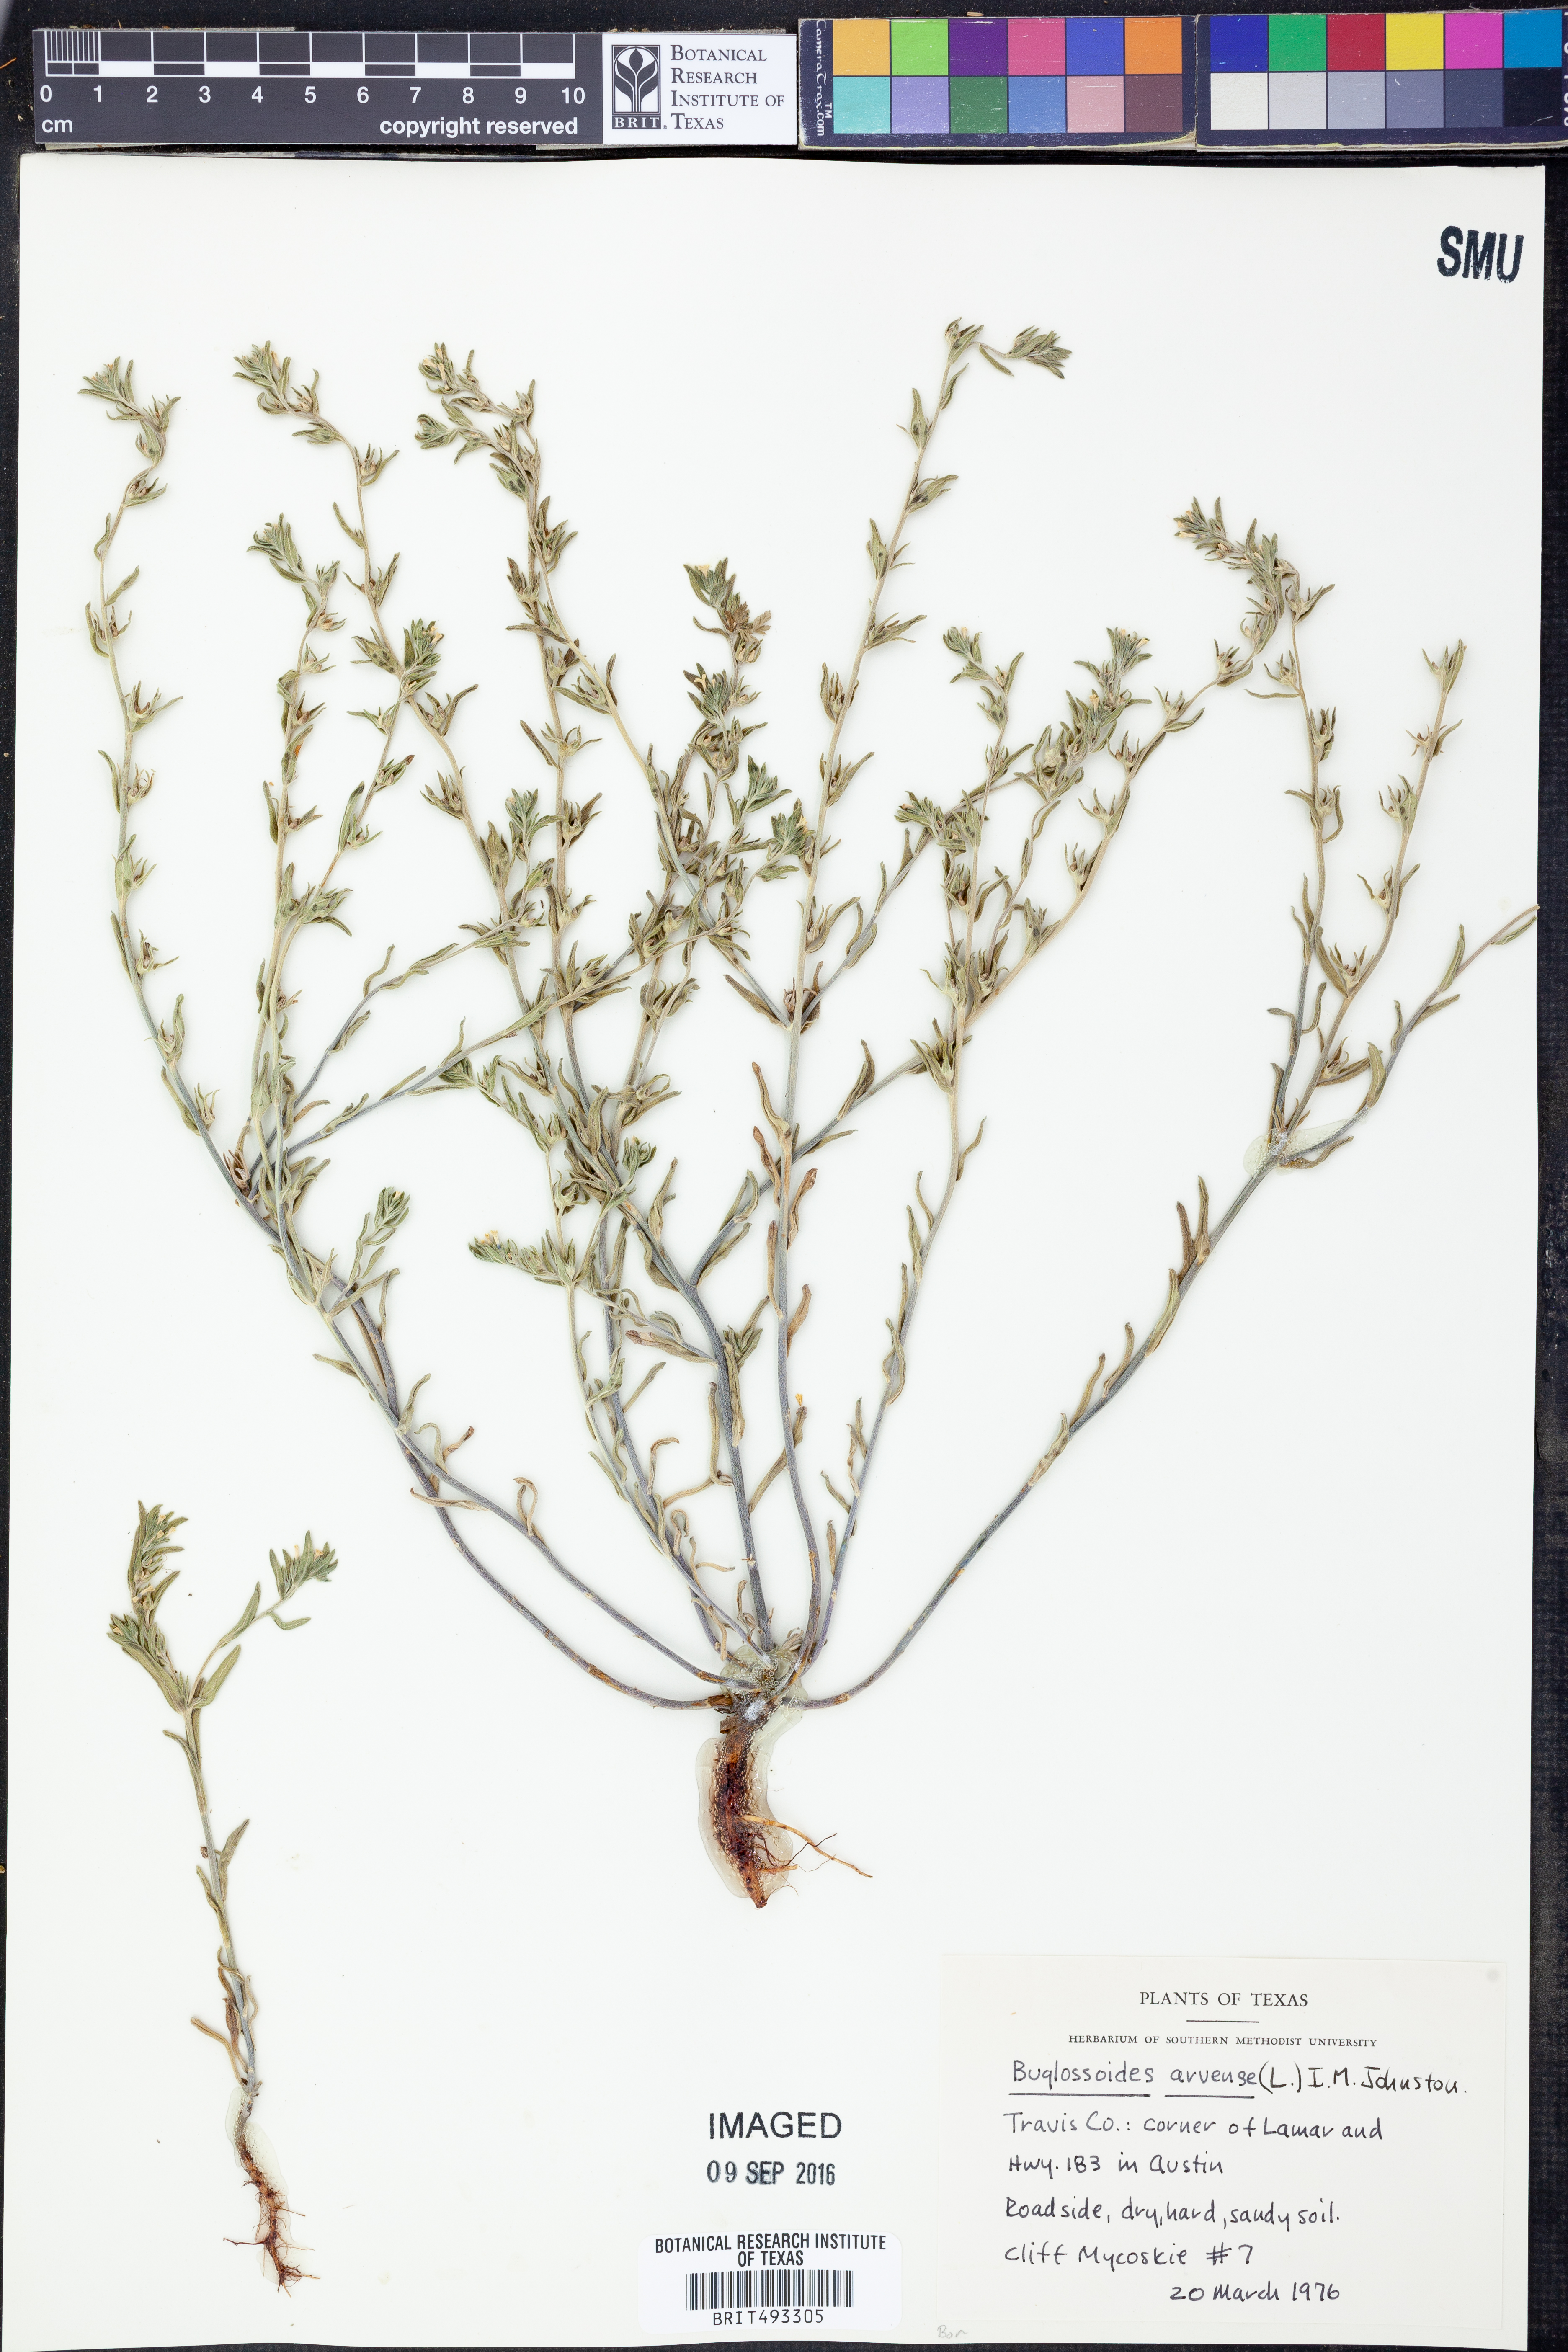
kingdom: Plantae
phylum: Tracheophyta
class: Magnoliopsida
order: Boraginales
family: Boraginaceae
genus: Buglossoides
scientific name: Buglossoides arvensis
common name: Corn gromwell
